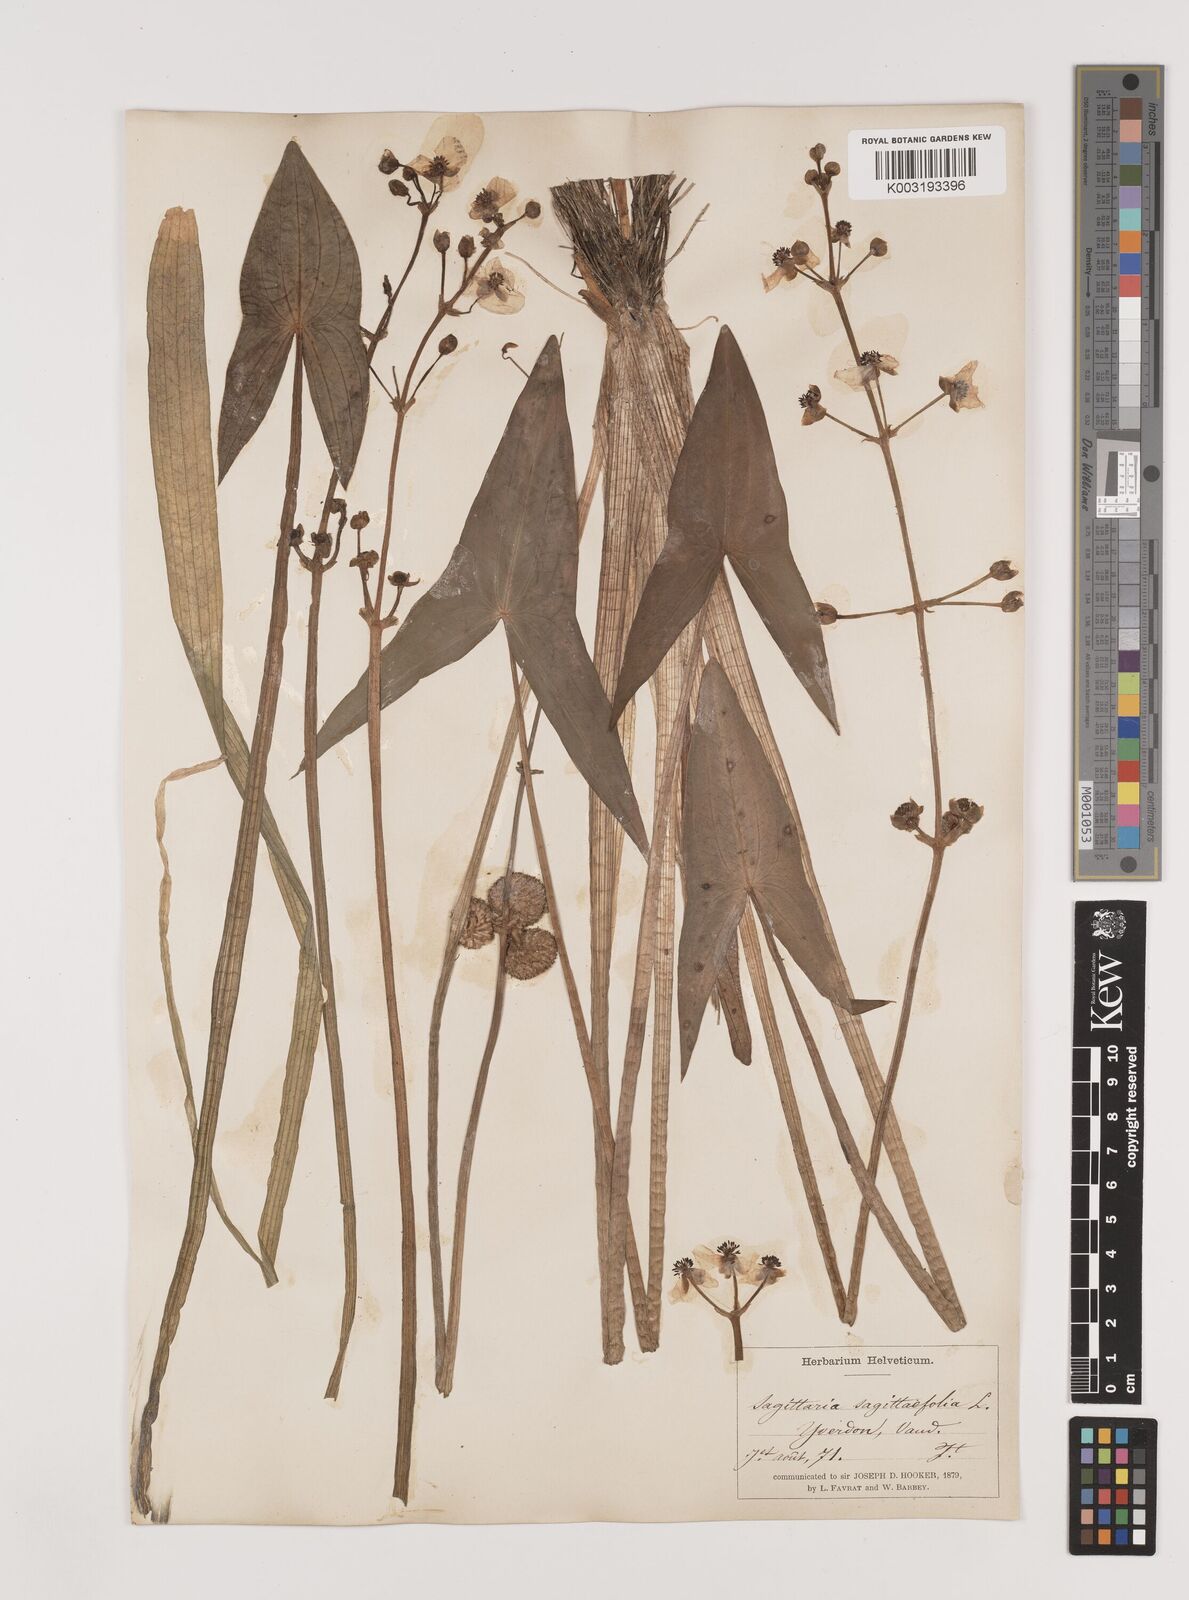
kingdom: Plantae
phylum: Tracheophyta
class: Liliopsida
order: Alismatales
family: Alismataceae
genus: Sagittaria
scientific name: Sagittaria sagittifolia
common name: Arrowhead
